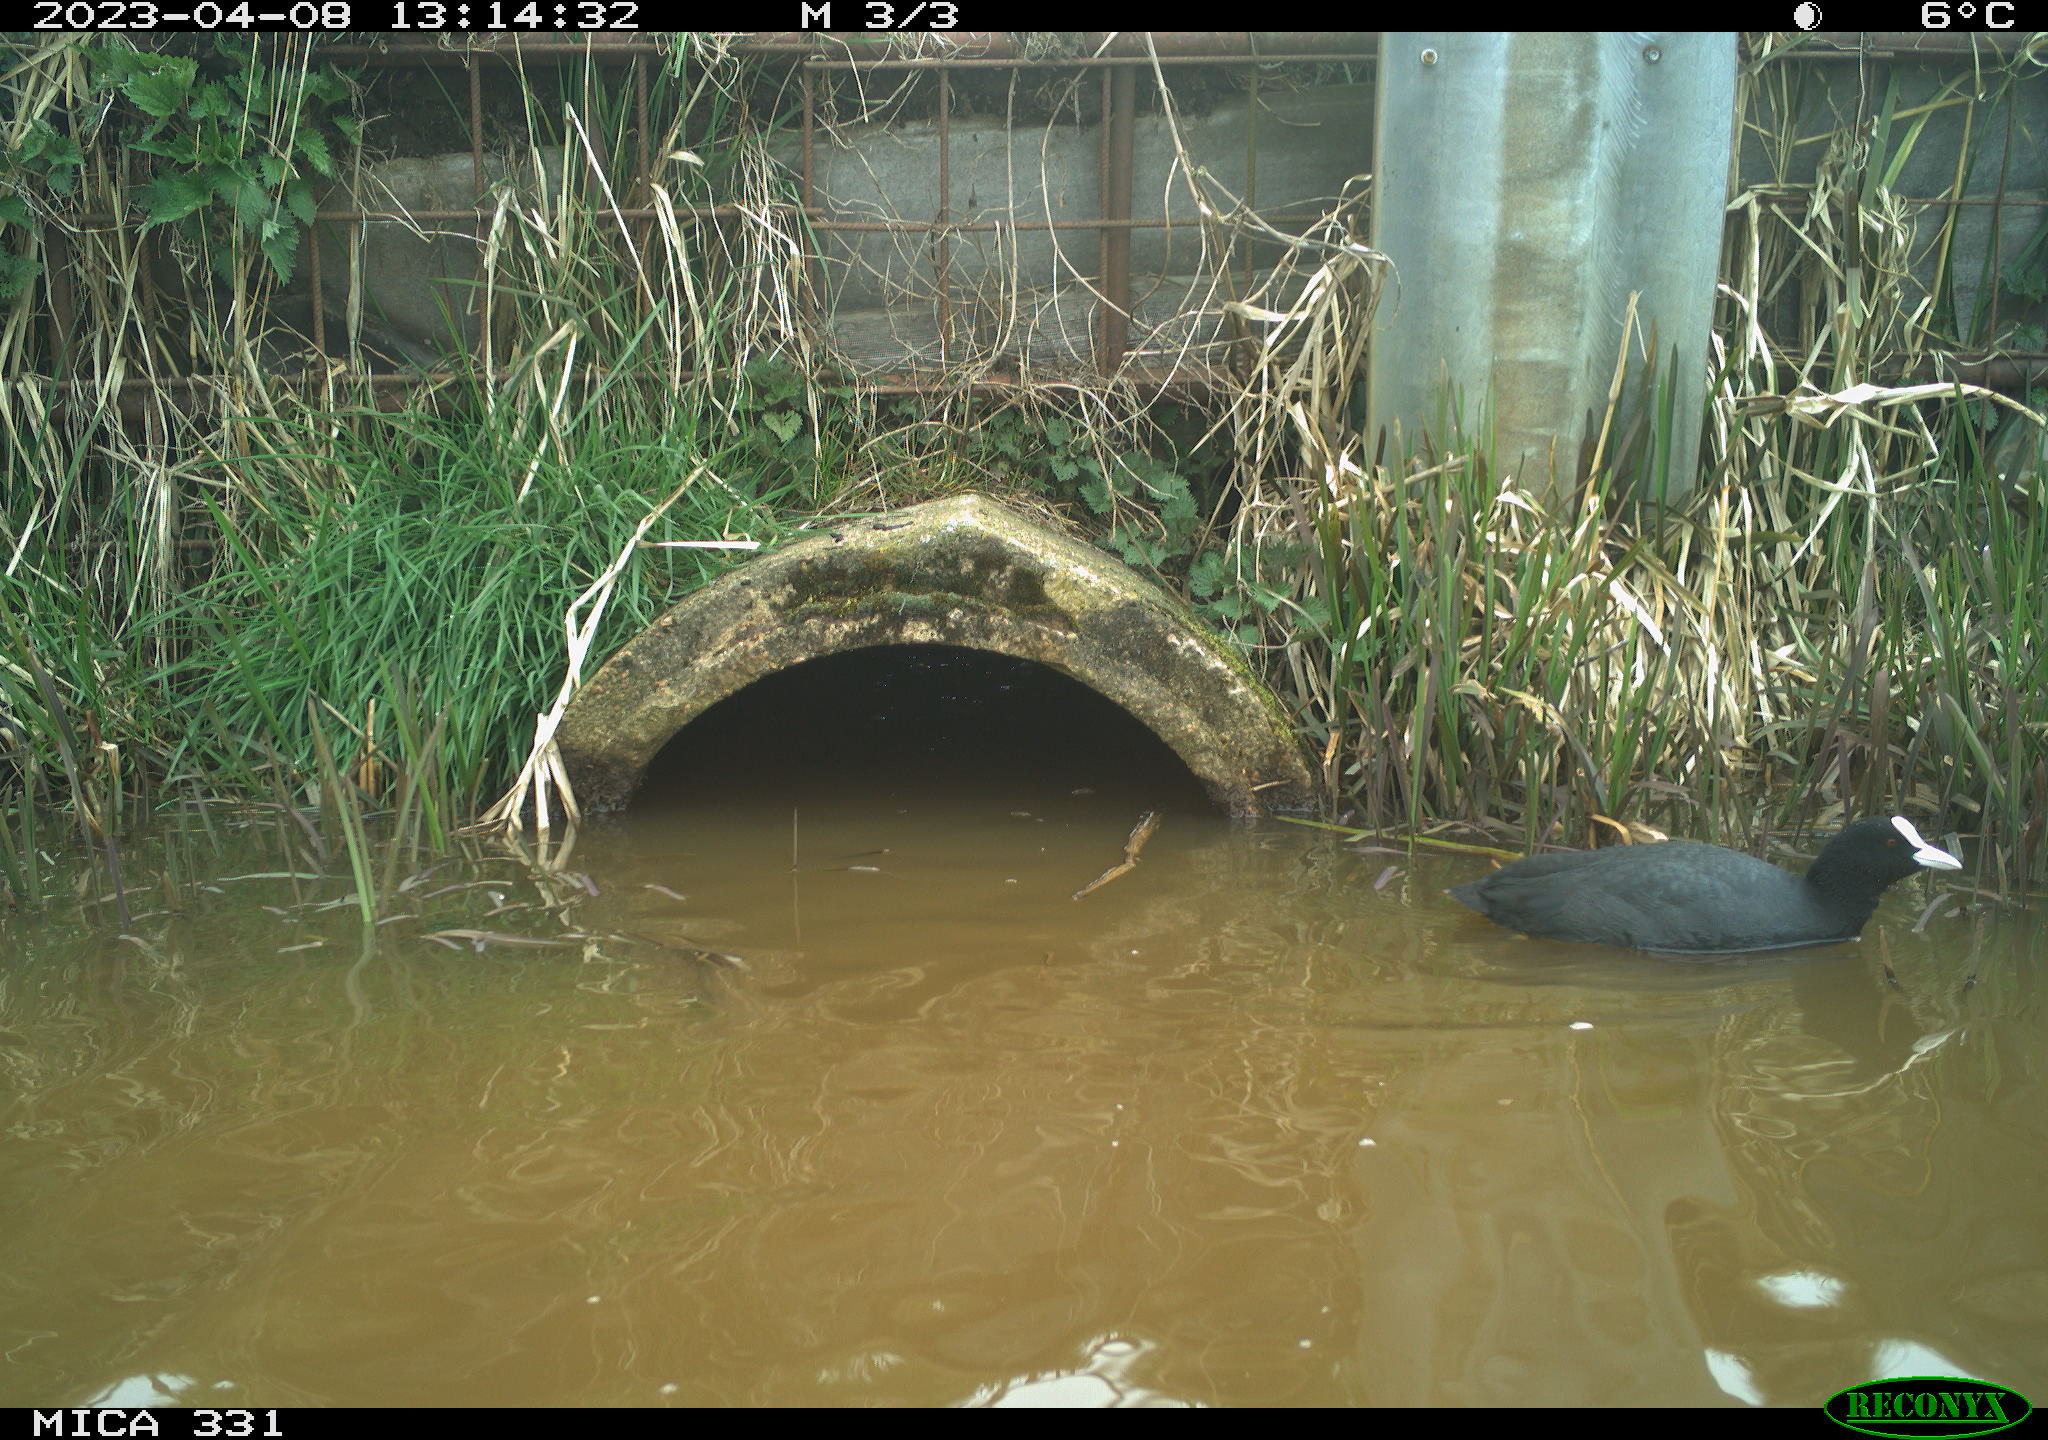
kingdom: Animalia
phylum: Chordata
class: Aves
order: Gruiformes
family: Rallidae
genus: Fulica
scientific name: Fulica atra
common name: Eurasian coot
